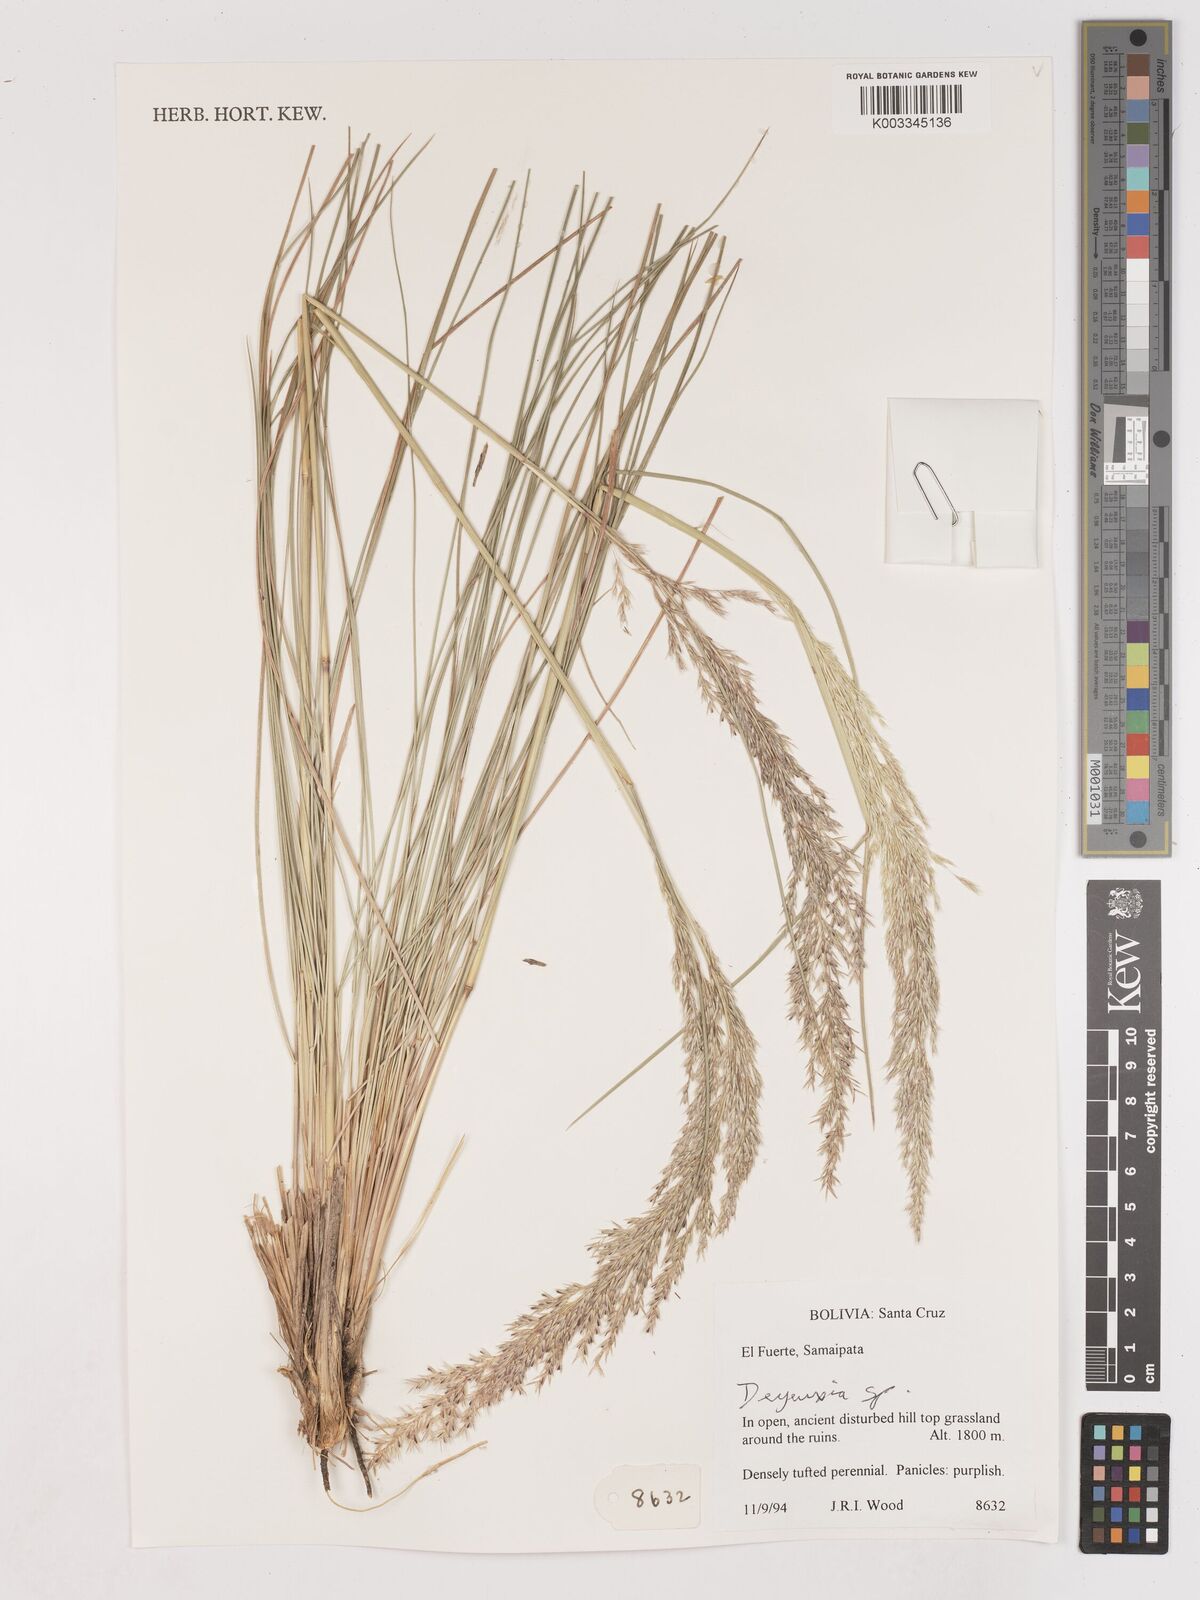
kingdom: Plantae
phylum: Tracheophyta
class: Liliopsida
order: Poales
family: Poaceae
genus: Calamagrostis
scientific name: Calamagrostis
